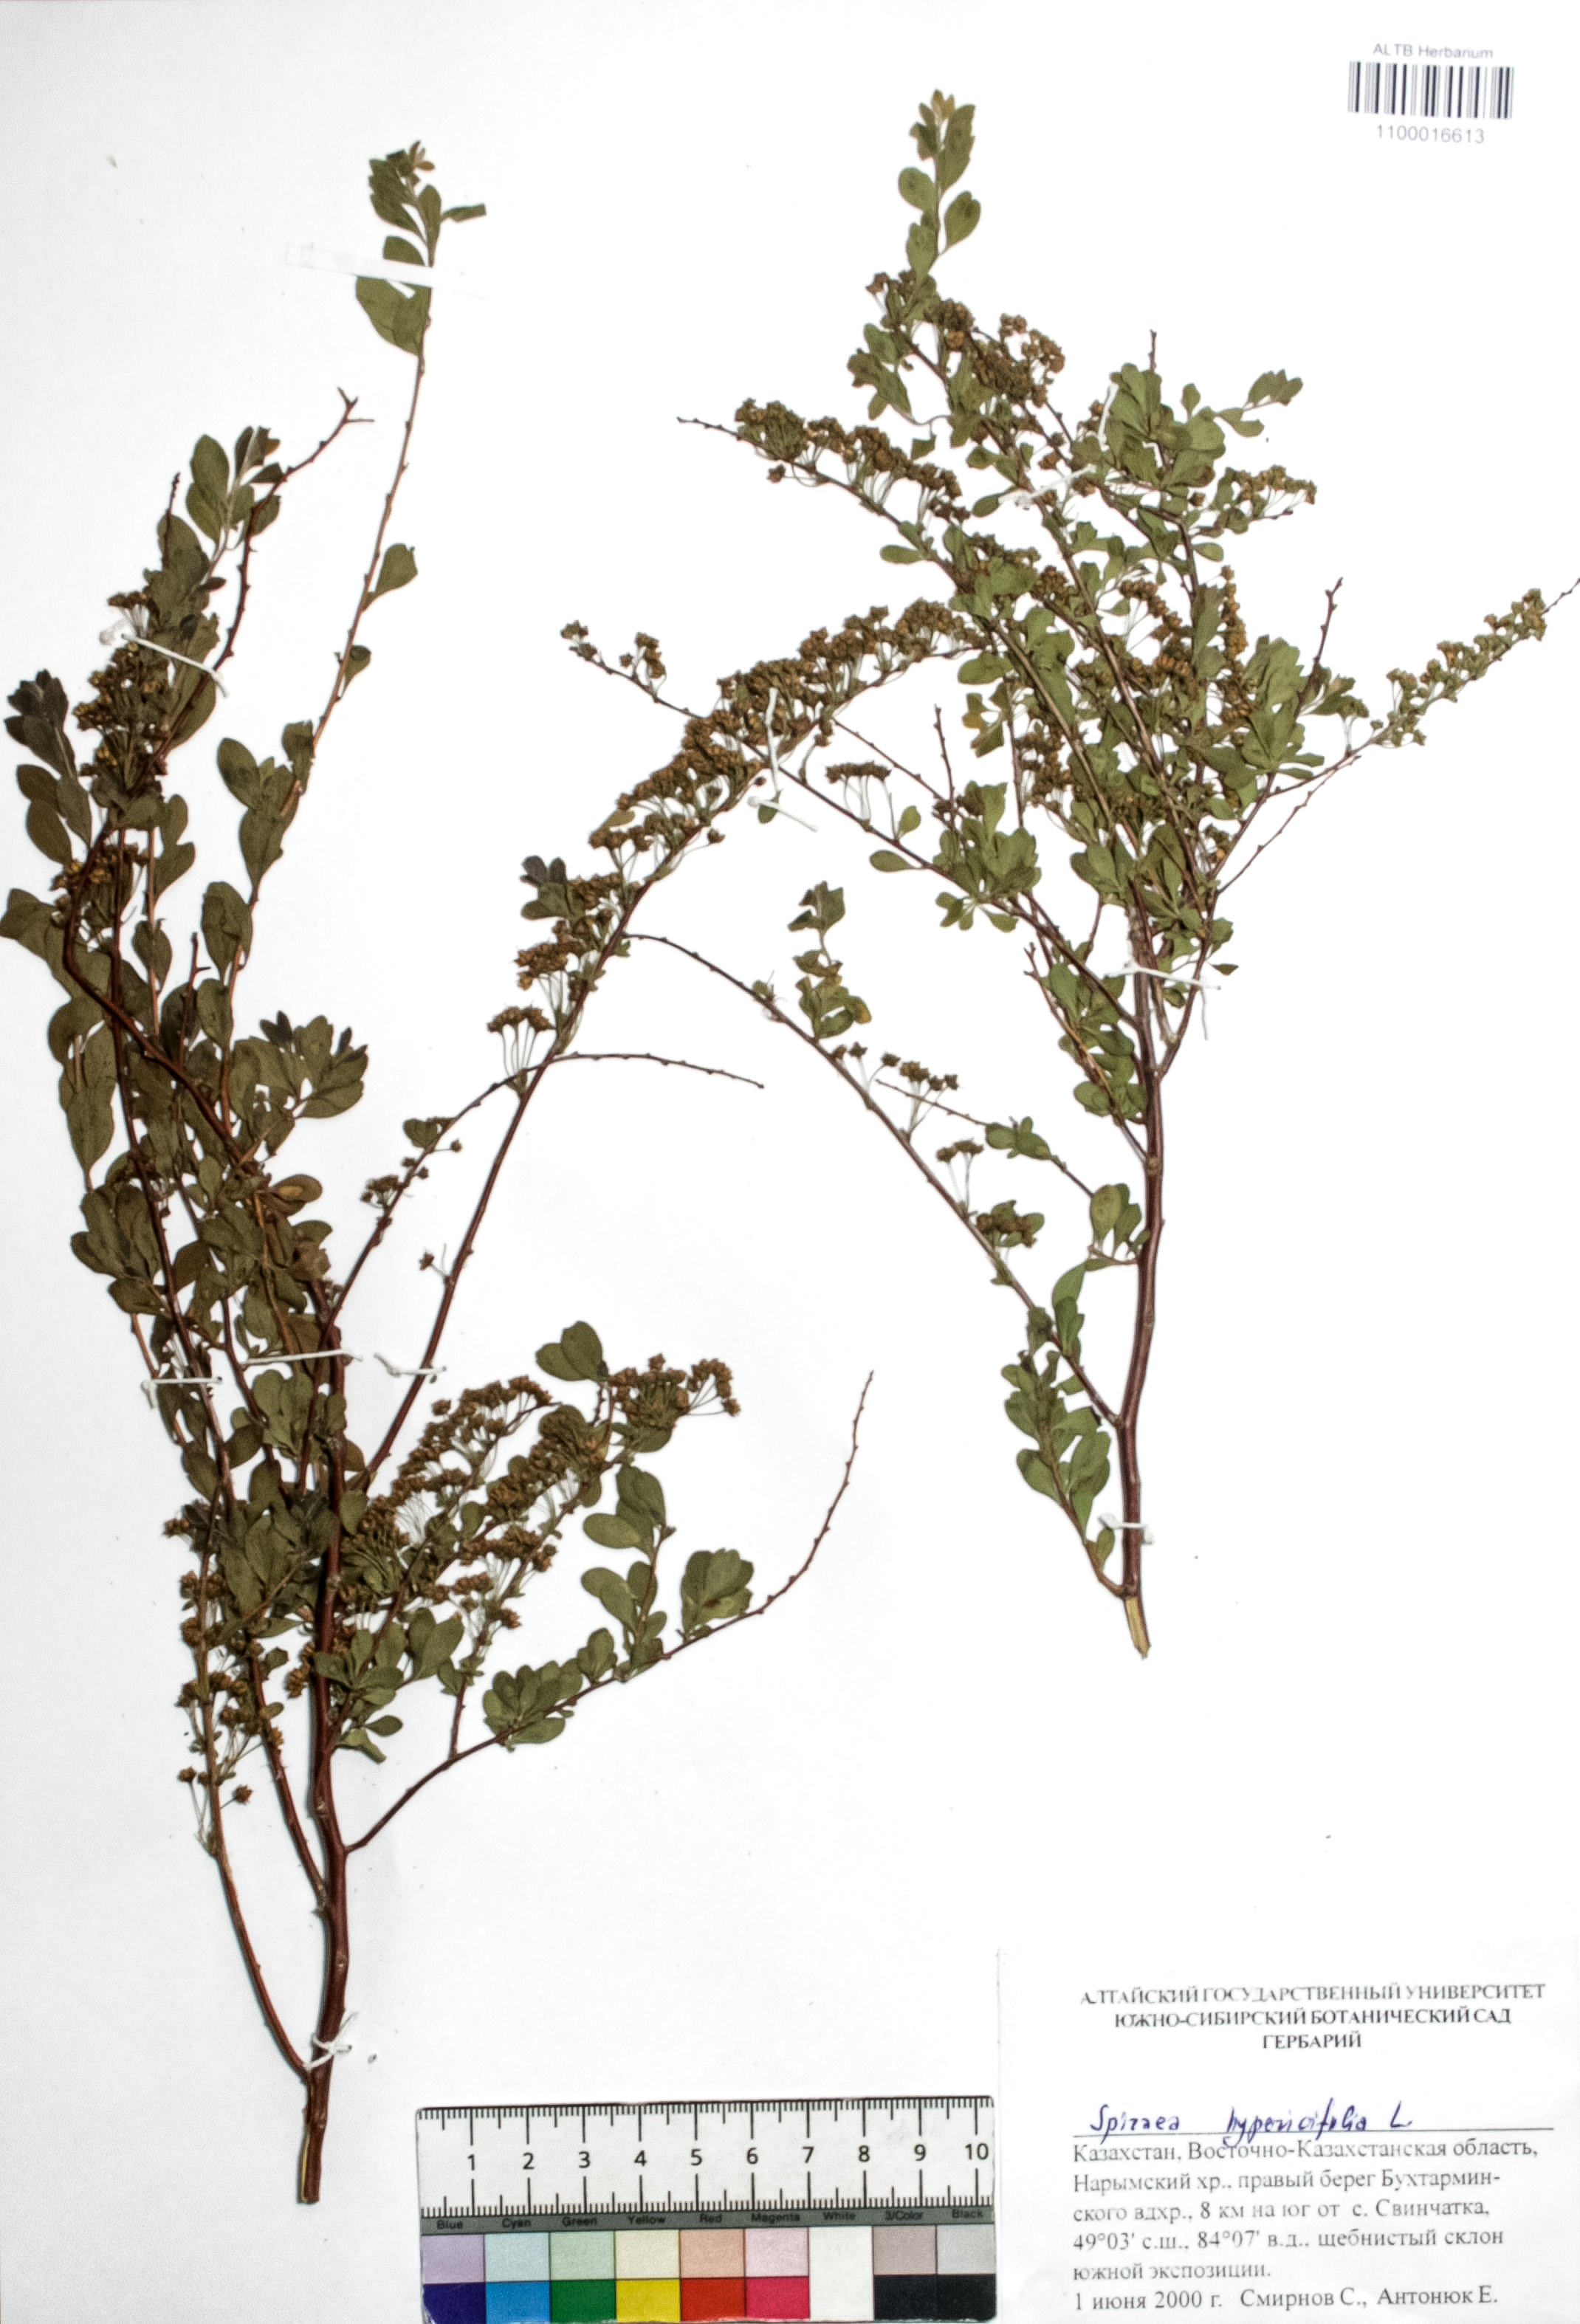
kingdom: Plantae
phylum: Tracheophyta
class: Magnoliopsida
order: Rosales
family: Rosaceae
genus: Spiraea
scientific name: Spiraea hypericifolia
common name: Iberian spirea
